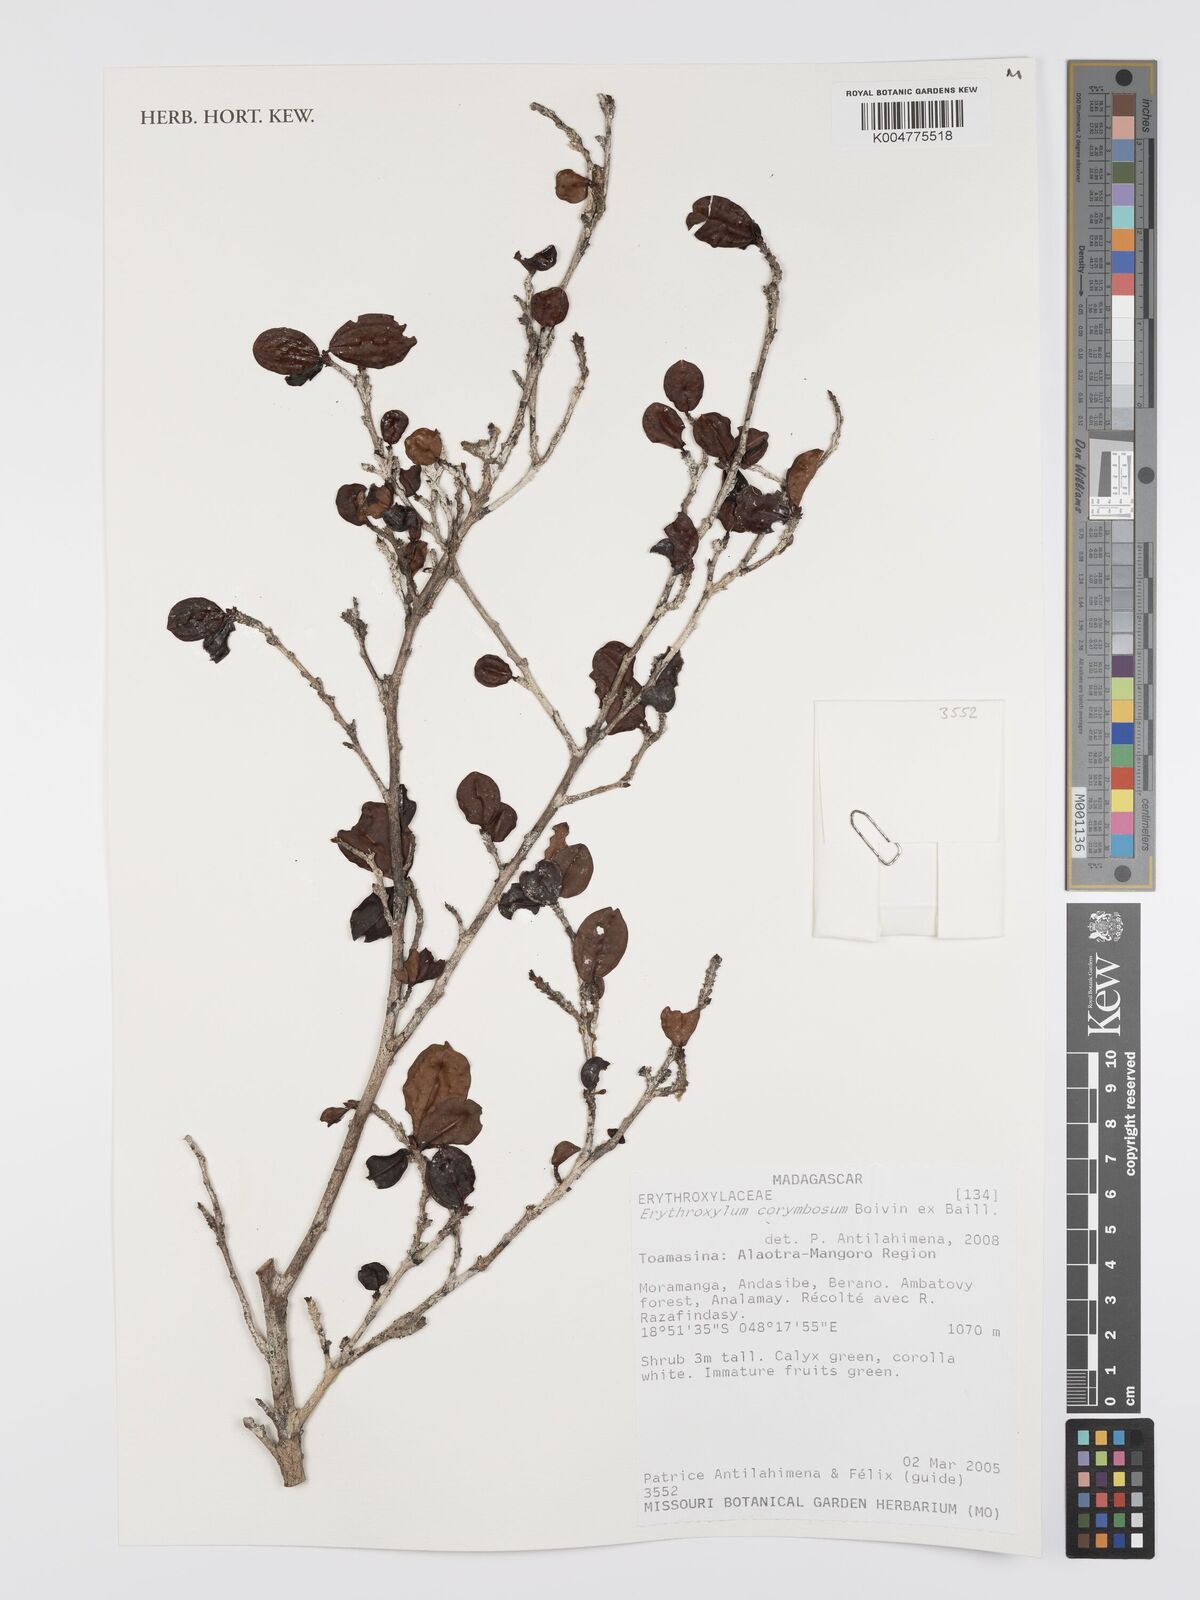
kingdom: Plantae
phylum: Tracheophyta
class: Magnoliopsida
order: Malpighiales
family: Erythroxylaceae
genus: Erythroxylum
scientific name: Erythroxylum corymbosum
